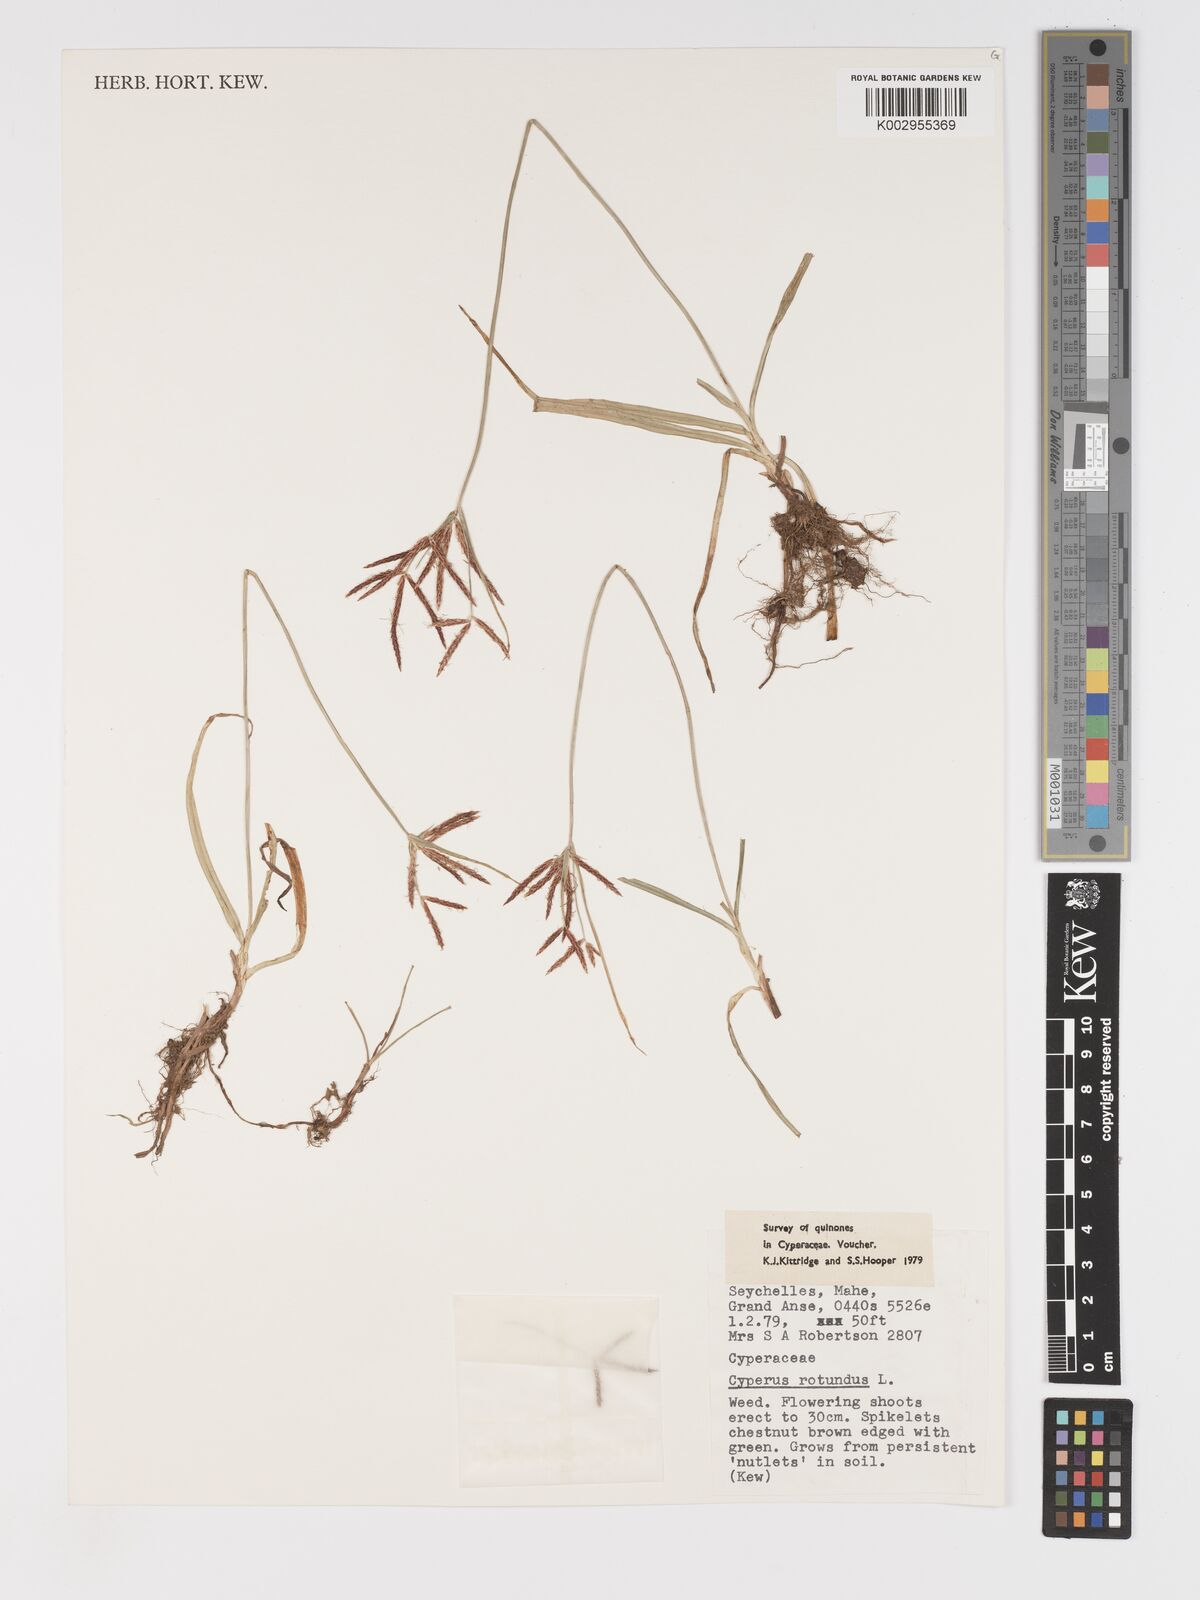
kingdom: Plantae
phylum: Tracheophyta
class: Liliopsida
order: Poales
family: Cyperaceae
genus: Cyperus
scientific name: Cyperus rotundus
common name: Nutgrass
